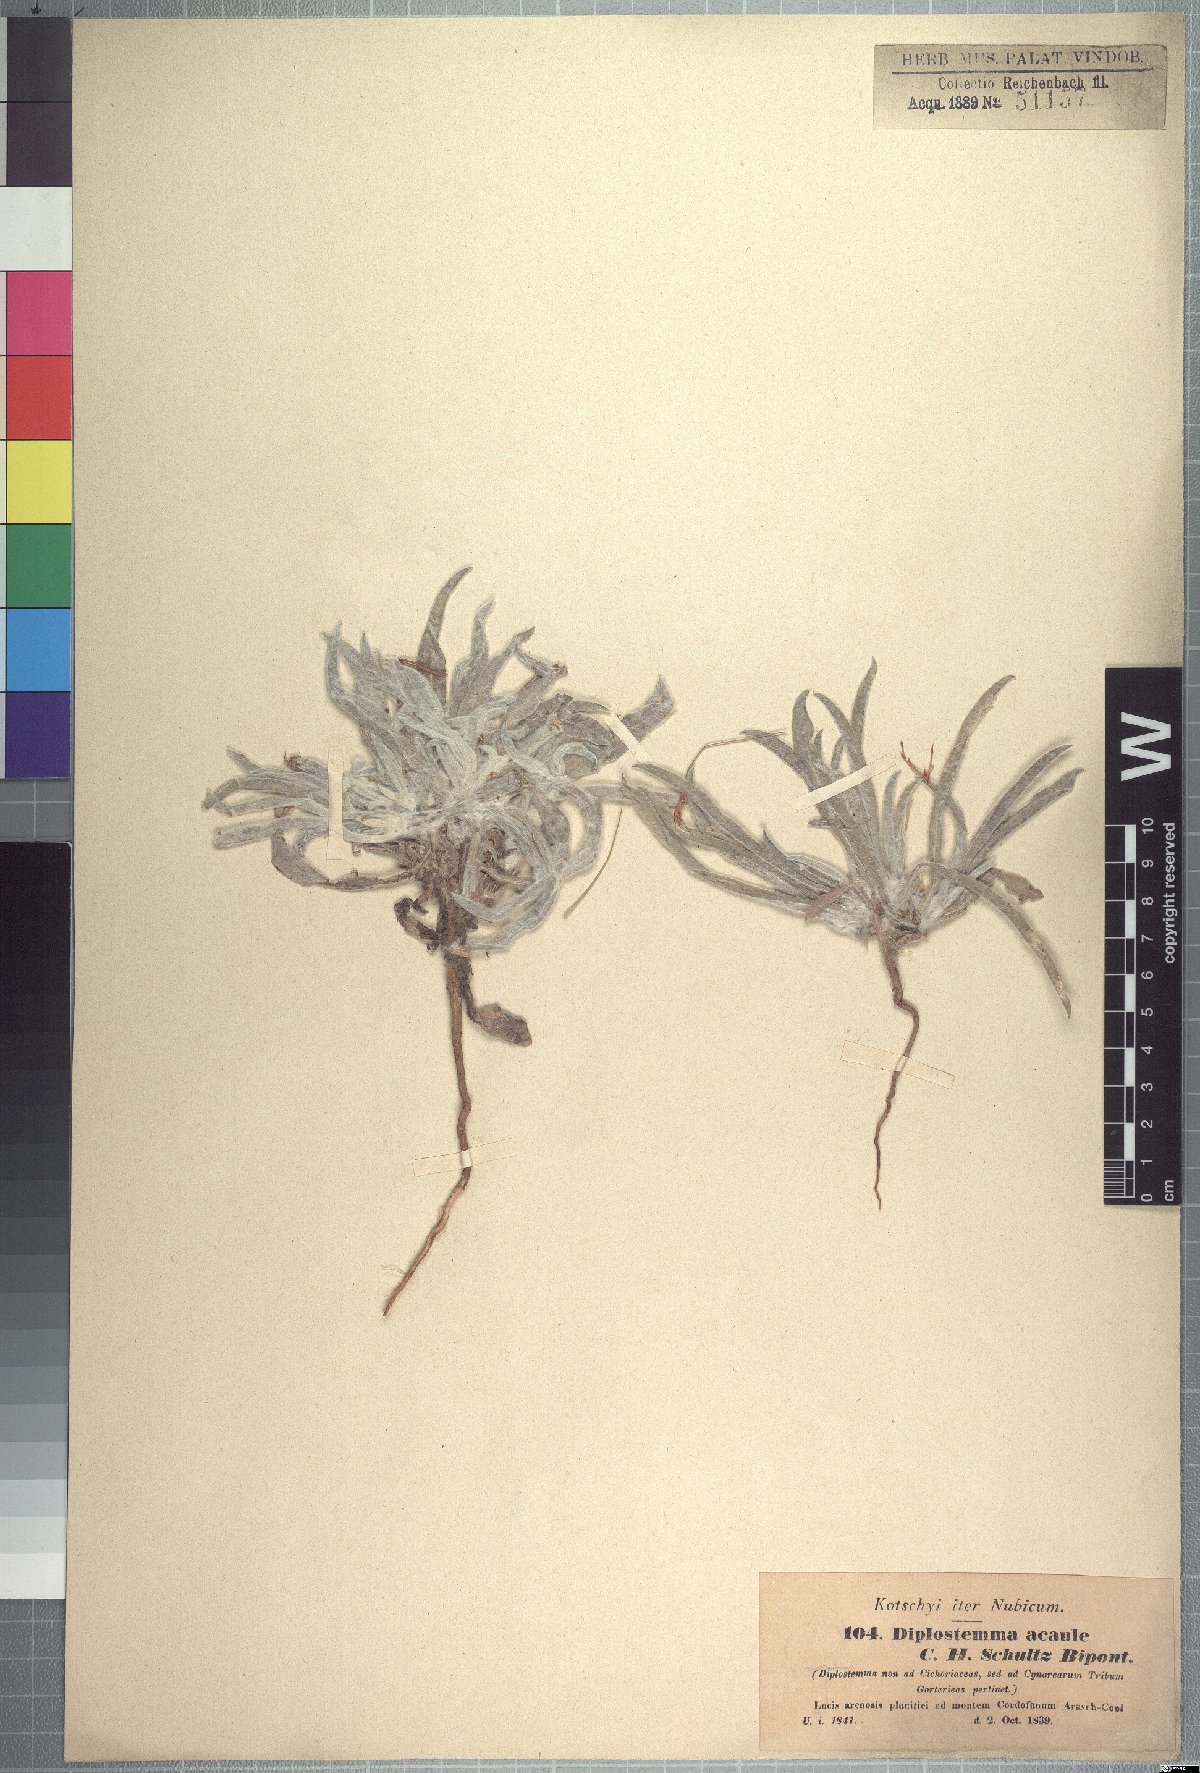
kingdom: Plantae
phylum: Tracheophyta
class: Magnoliopsida
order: Asterales
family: Asteraceae
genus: Geigeria
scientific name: Geigeria acaulis
